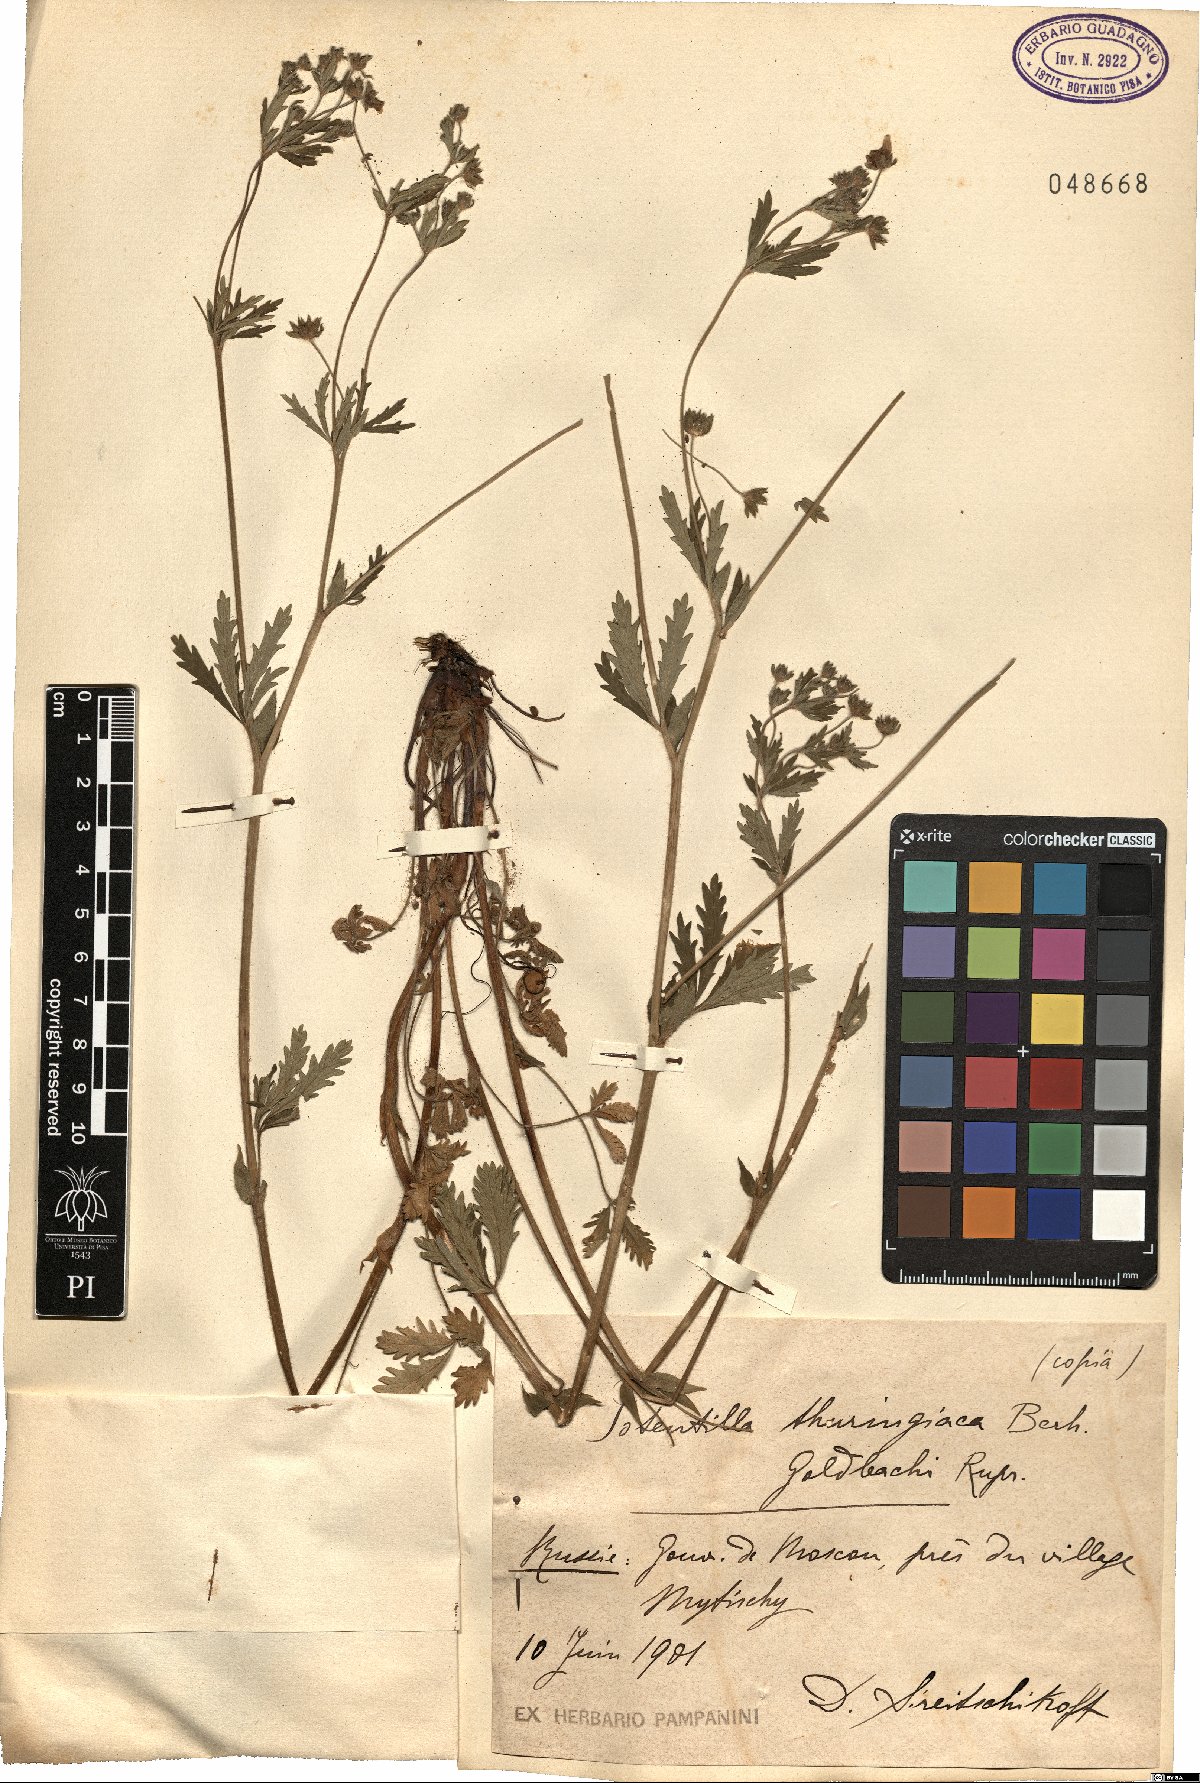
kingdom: Plantae
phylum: Tracheophyta
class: Magnoliopsida
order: Rosales
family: Rosaceae
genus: Potentilla
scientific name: Potentilla thuringiaca
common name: European cinquefoil
